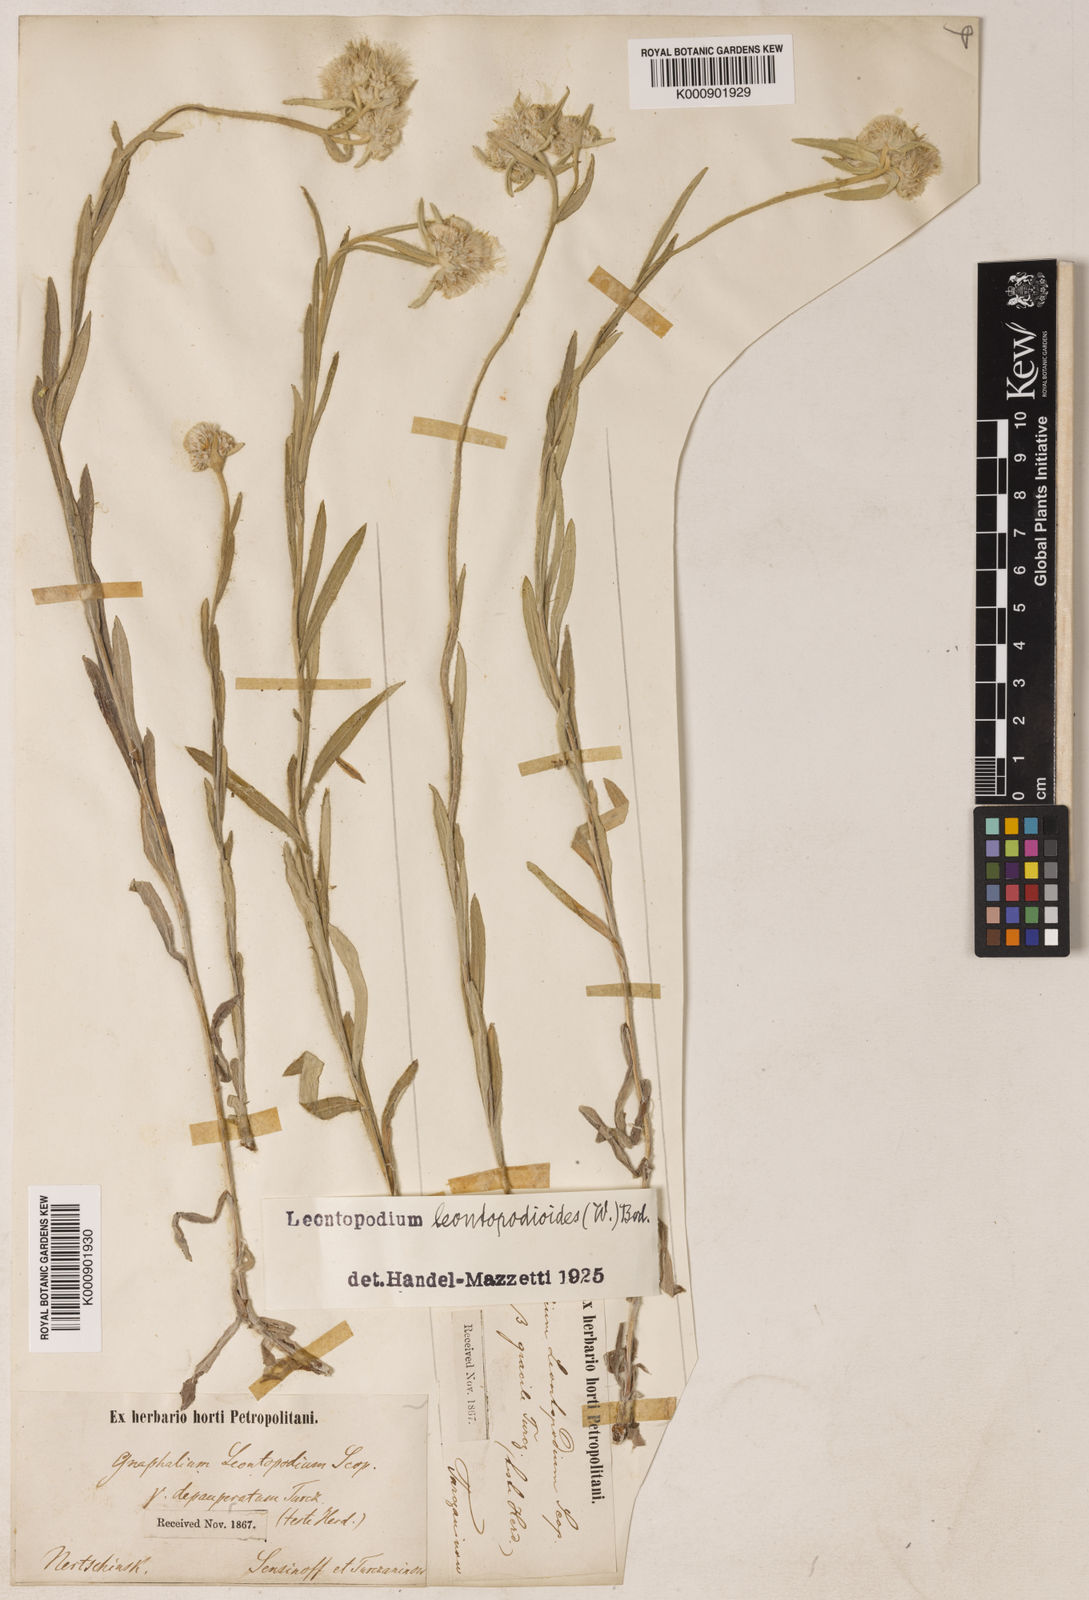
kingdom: Plantae
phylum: Tracheophyta
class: Magnoliopsida
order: Asterales
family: Asteraceae
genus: Leontopodium
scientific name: Leontopodium leontopodioides
